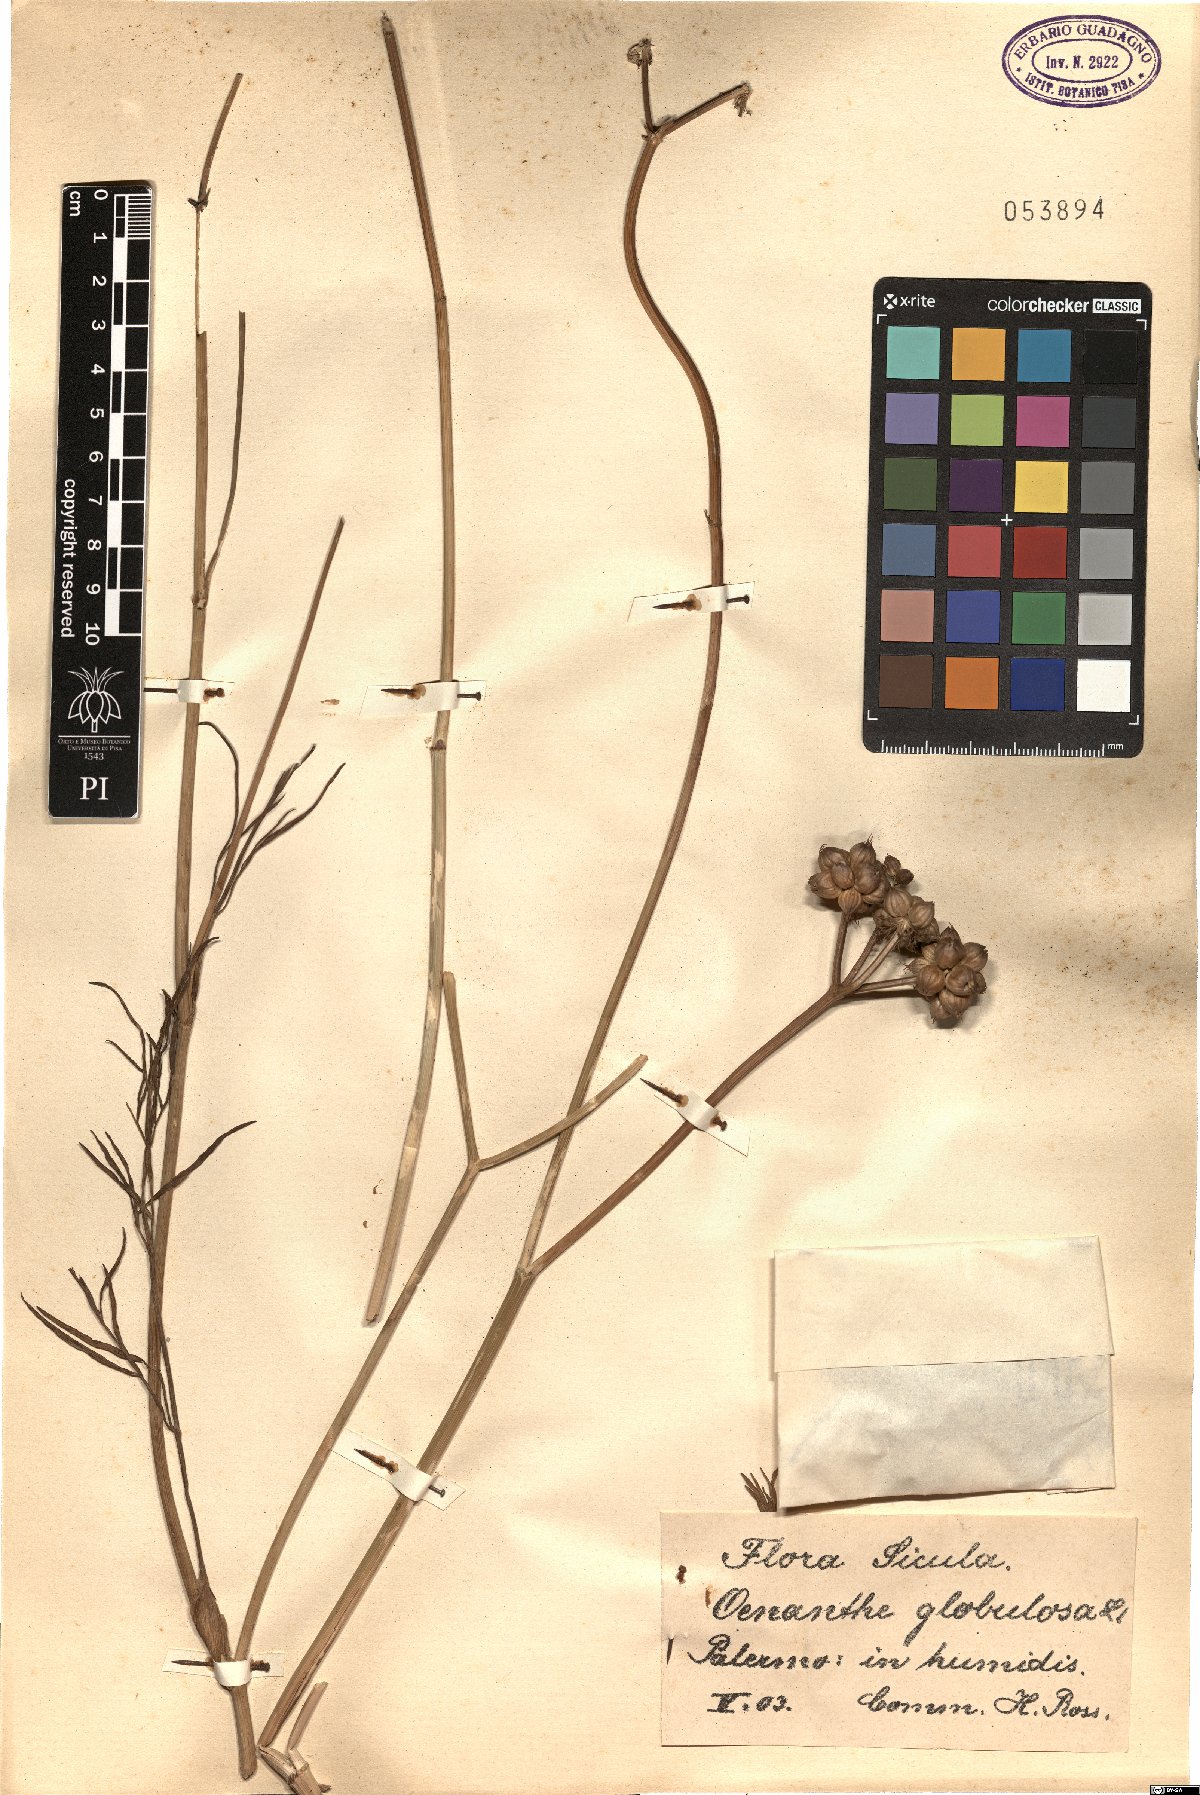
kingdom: Plantae
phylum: Tracheophyta
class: Magnoliopsida
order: Apiales
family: Apiaceae
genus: Oenanthe
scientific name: Oenanthe globulosa
